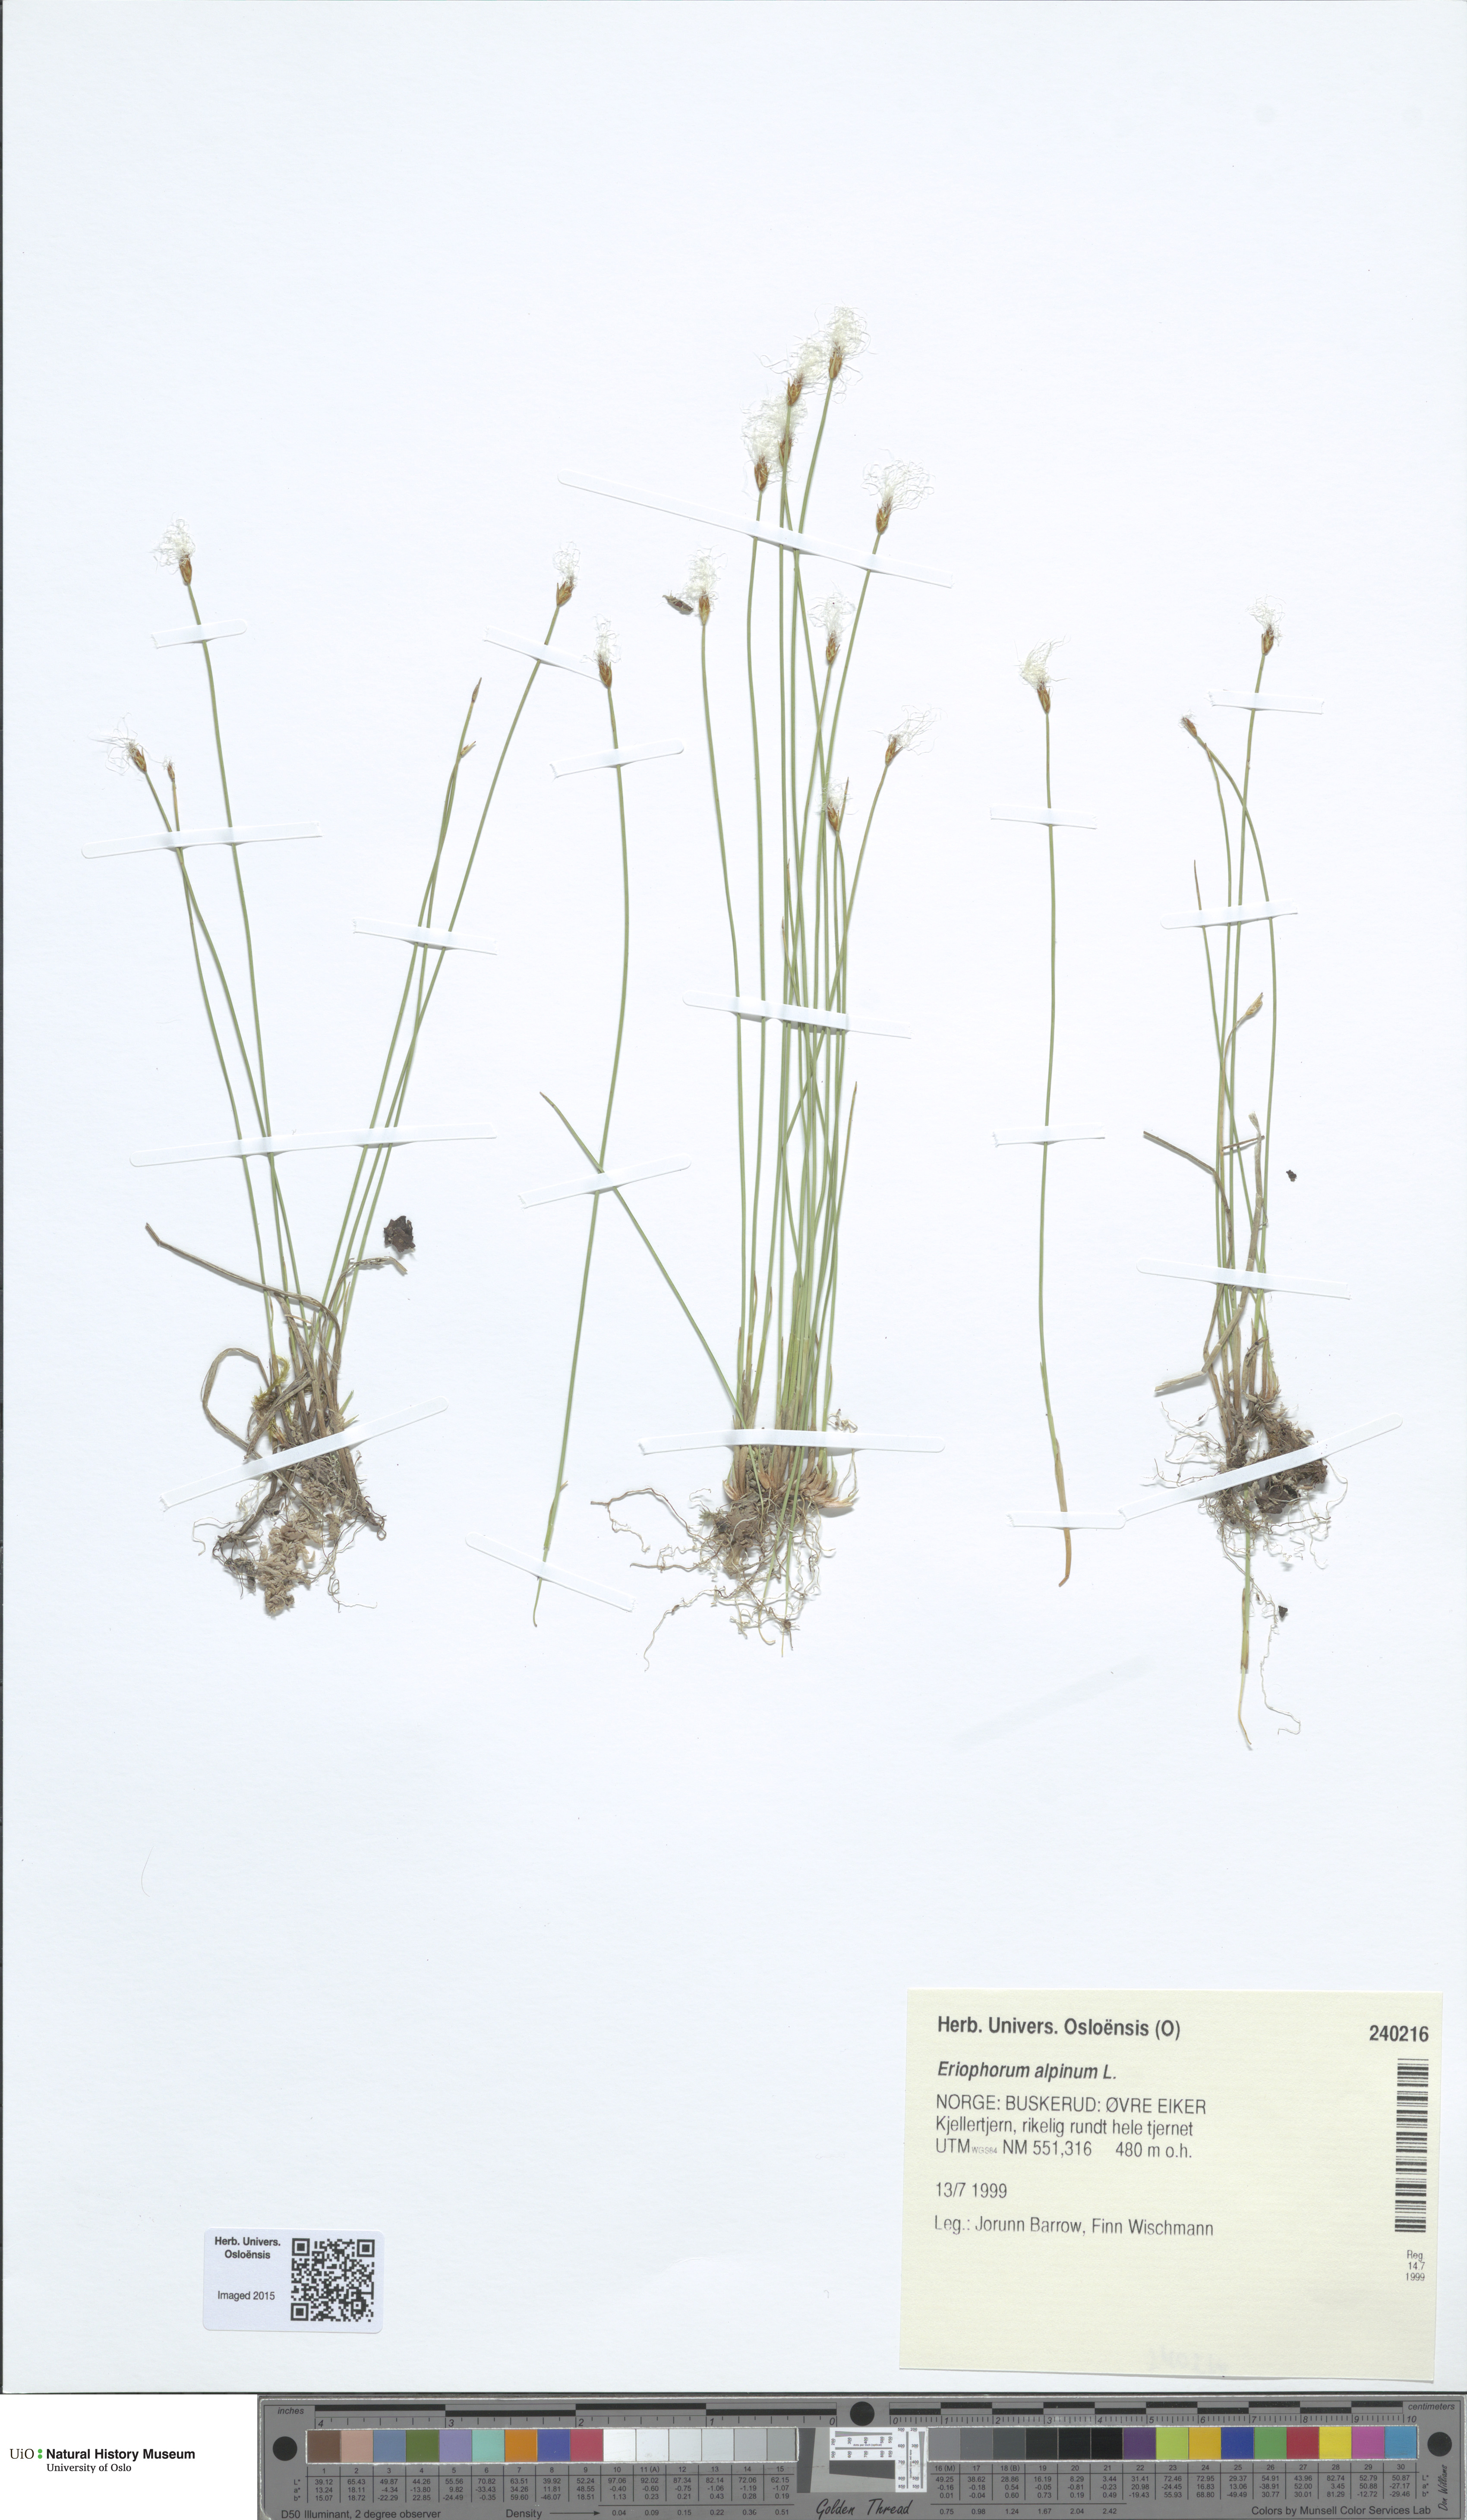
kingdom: Plantae
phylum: Tracheophyta
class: Liliopsida
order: Poales
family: Cyperaceae
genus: Trichophorum
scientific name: Trichophorum alpinum
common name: Alpine bulrush
